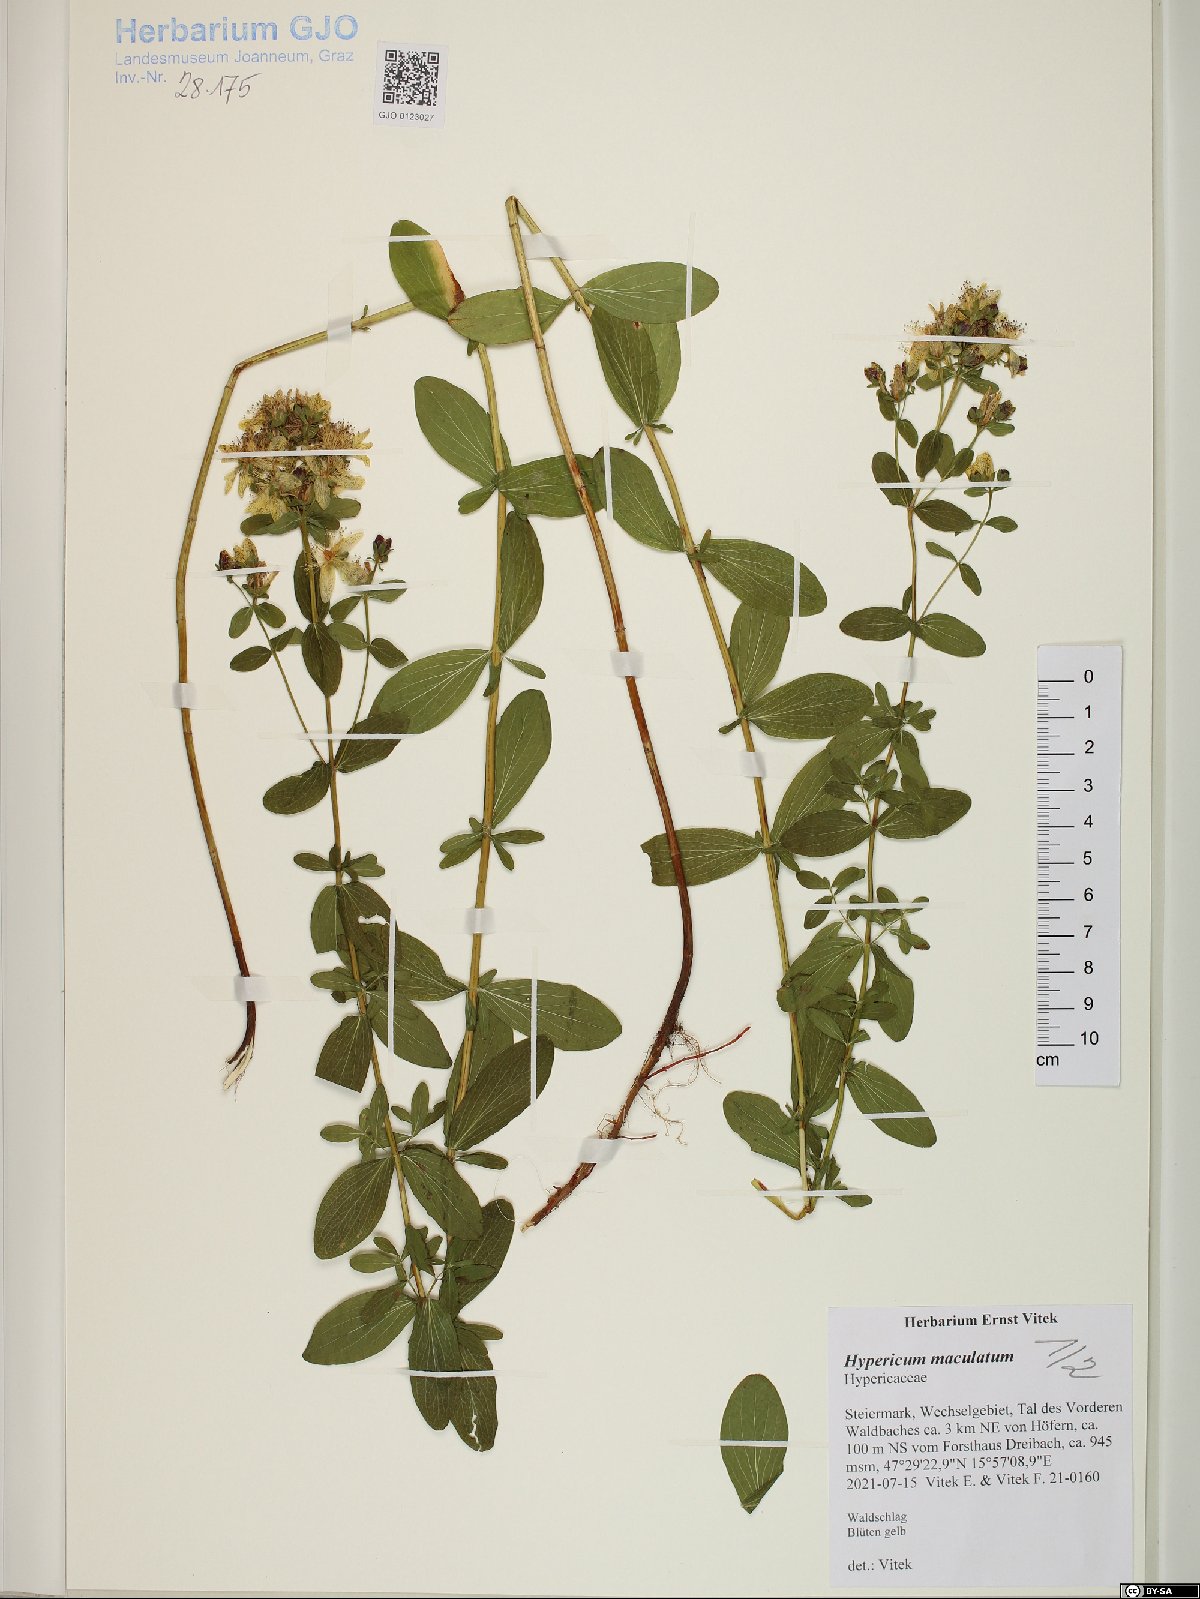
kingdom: Plantae
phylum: Tracheophyta
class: Magnoliopsida
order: Malpighiales
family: Hypericaceae
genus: Hypericum
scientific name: Hypericum maculatum
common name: Imperforate st. john's-wort
